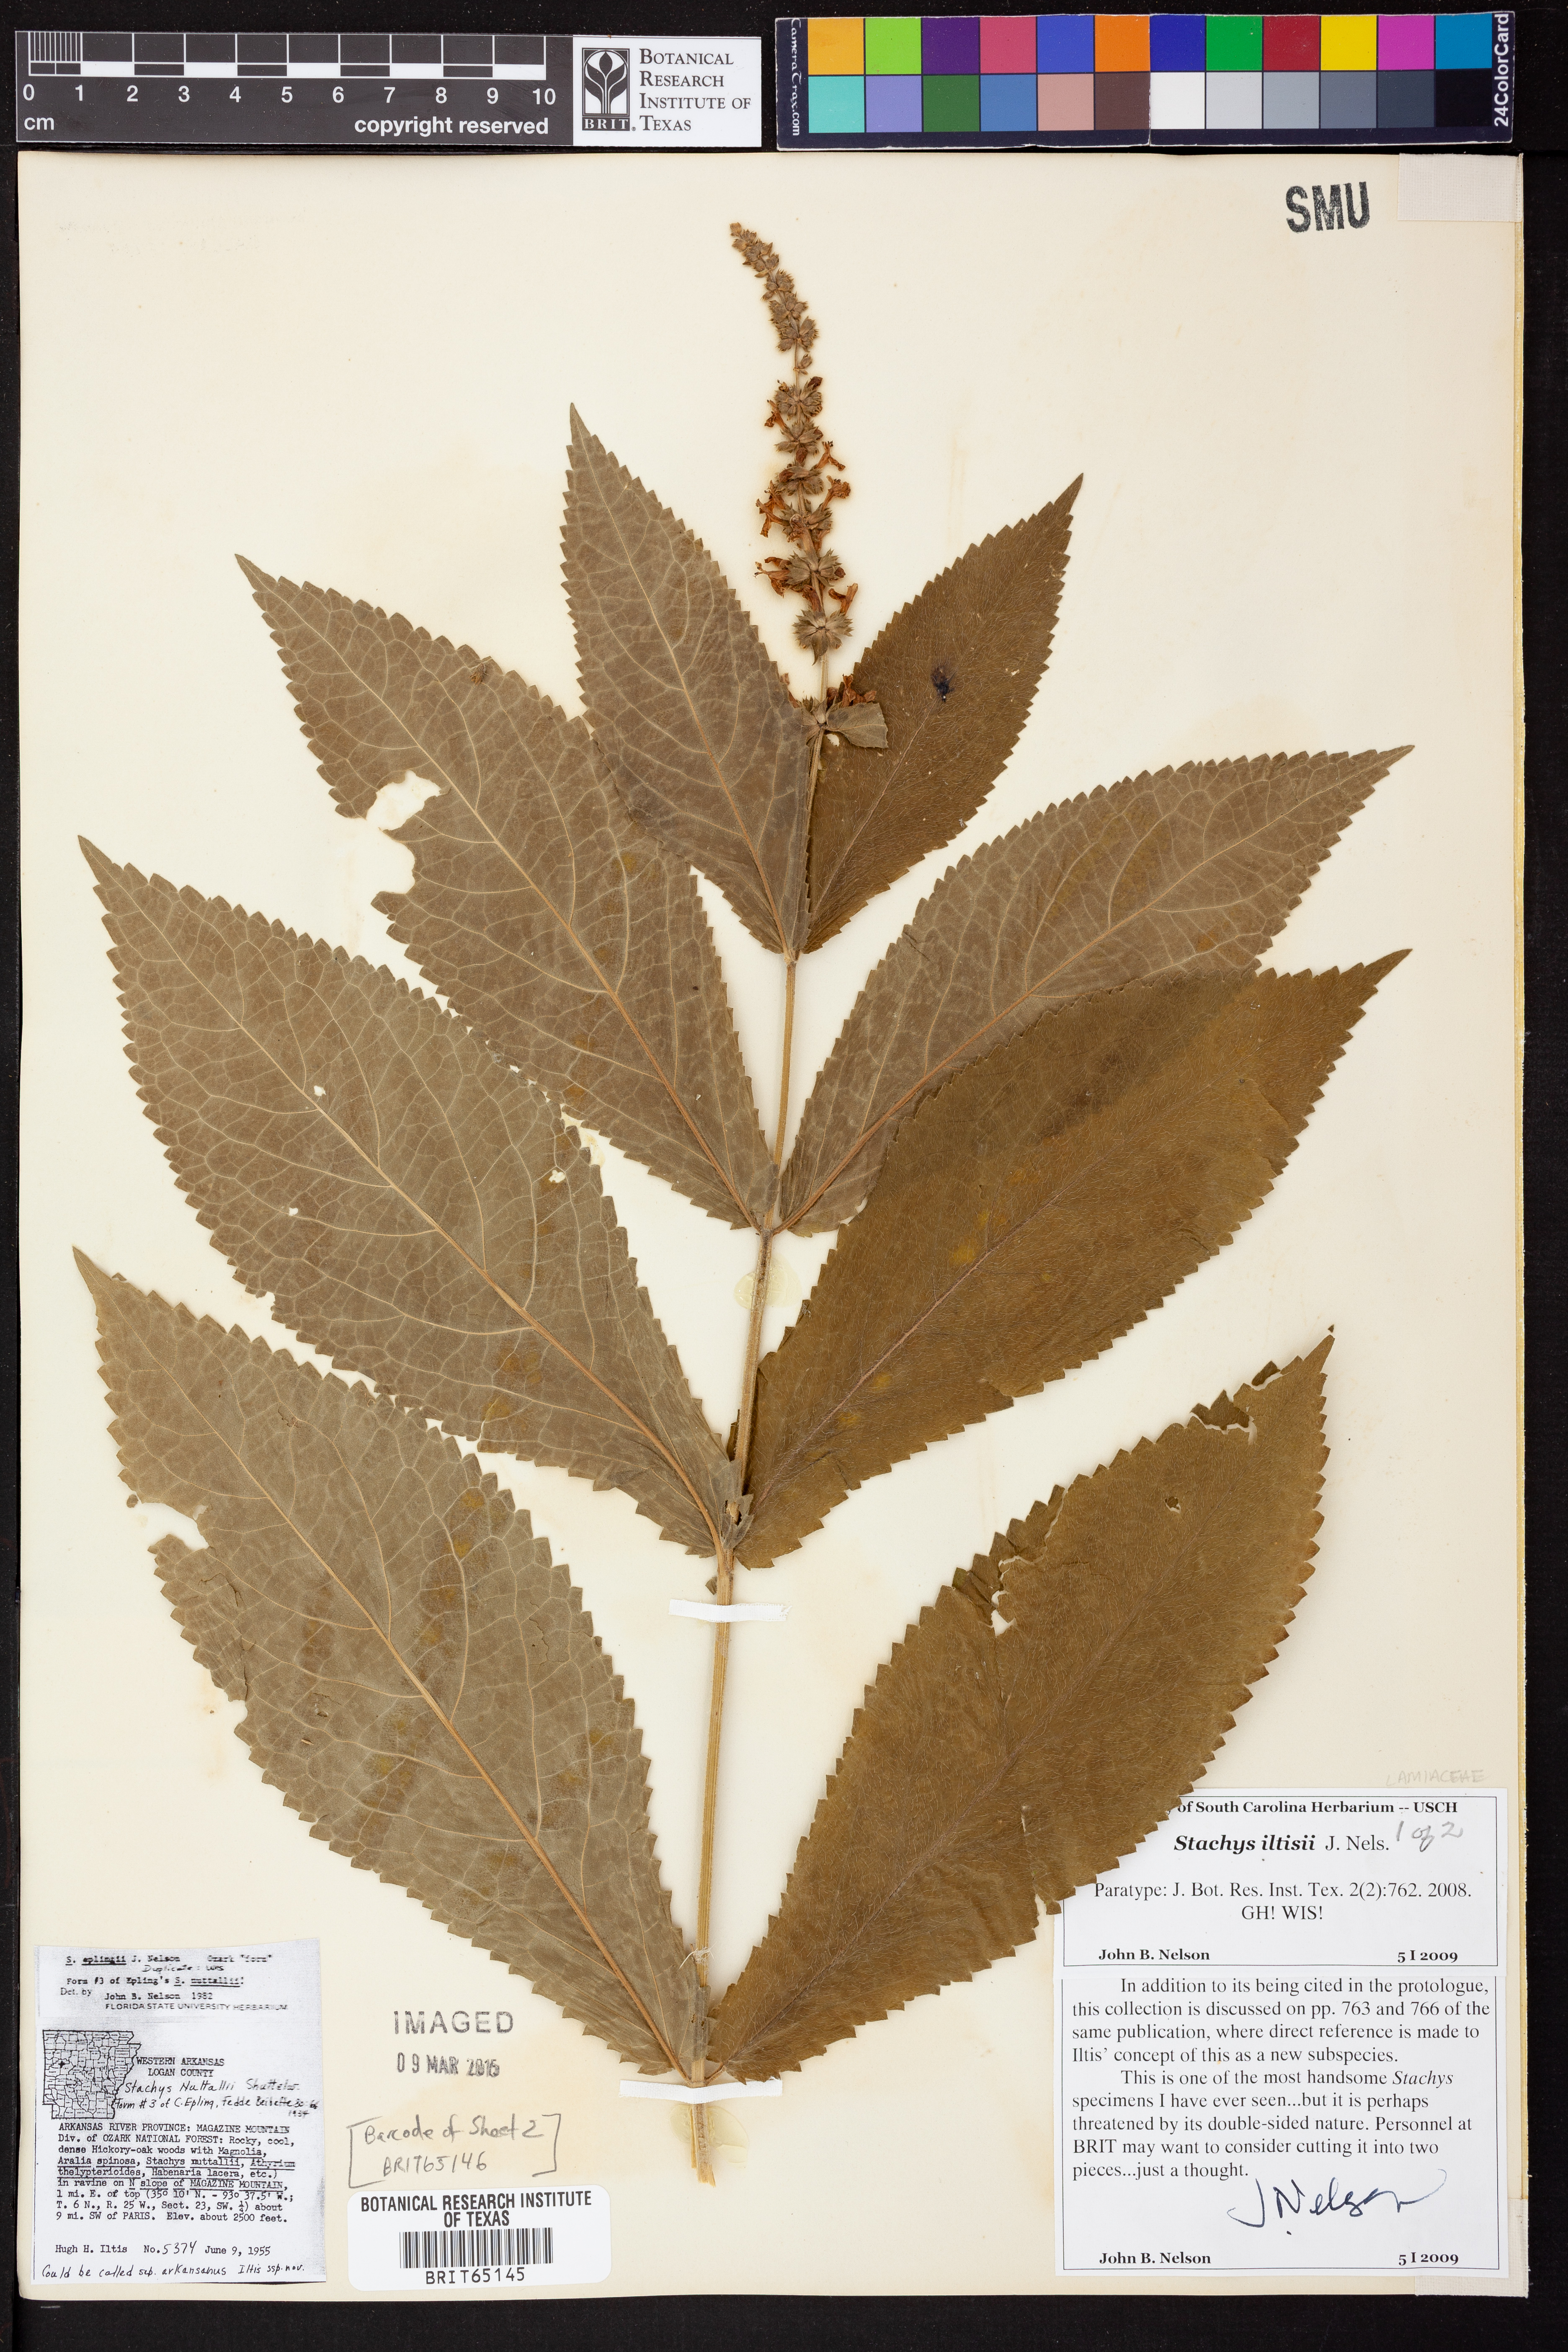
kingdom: Plantae
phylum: Tracheophyta
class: Magnoliopsida
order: Lamiales
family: Lamiaceae
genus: Stachys
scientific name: Stachys iltisii
